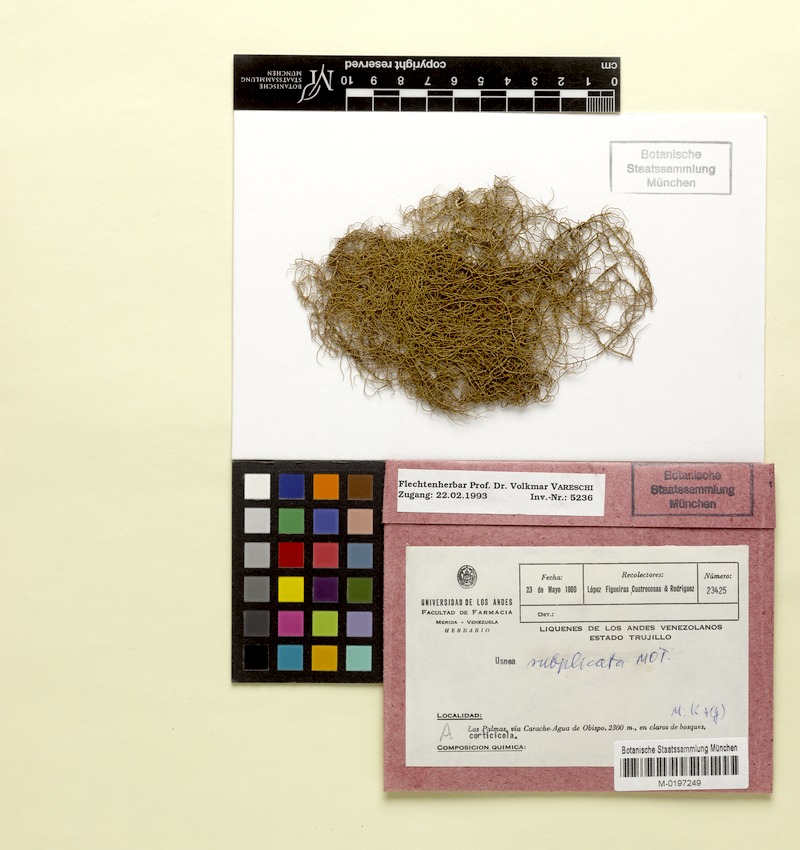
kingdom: Fungi
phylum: Ascomycota
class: Lecanoromycetes
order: Lecanorales
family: Parmeliaceae
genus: Usnea
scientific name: Usnea subgracilis
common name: Beard lichen
